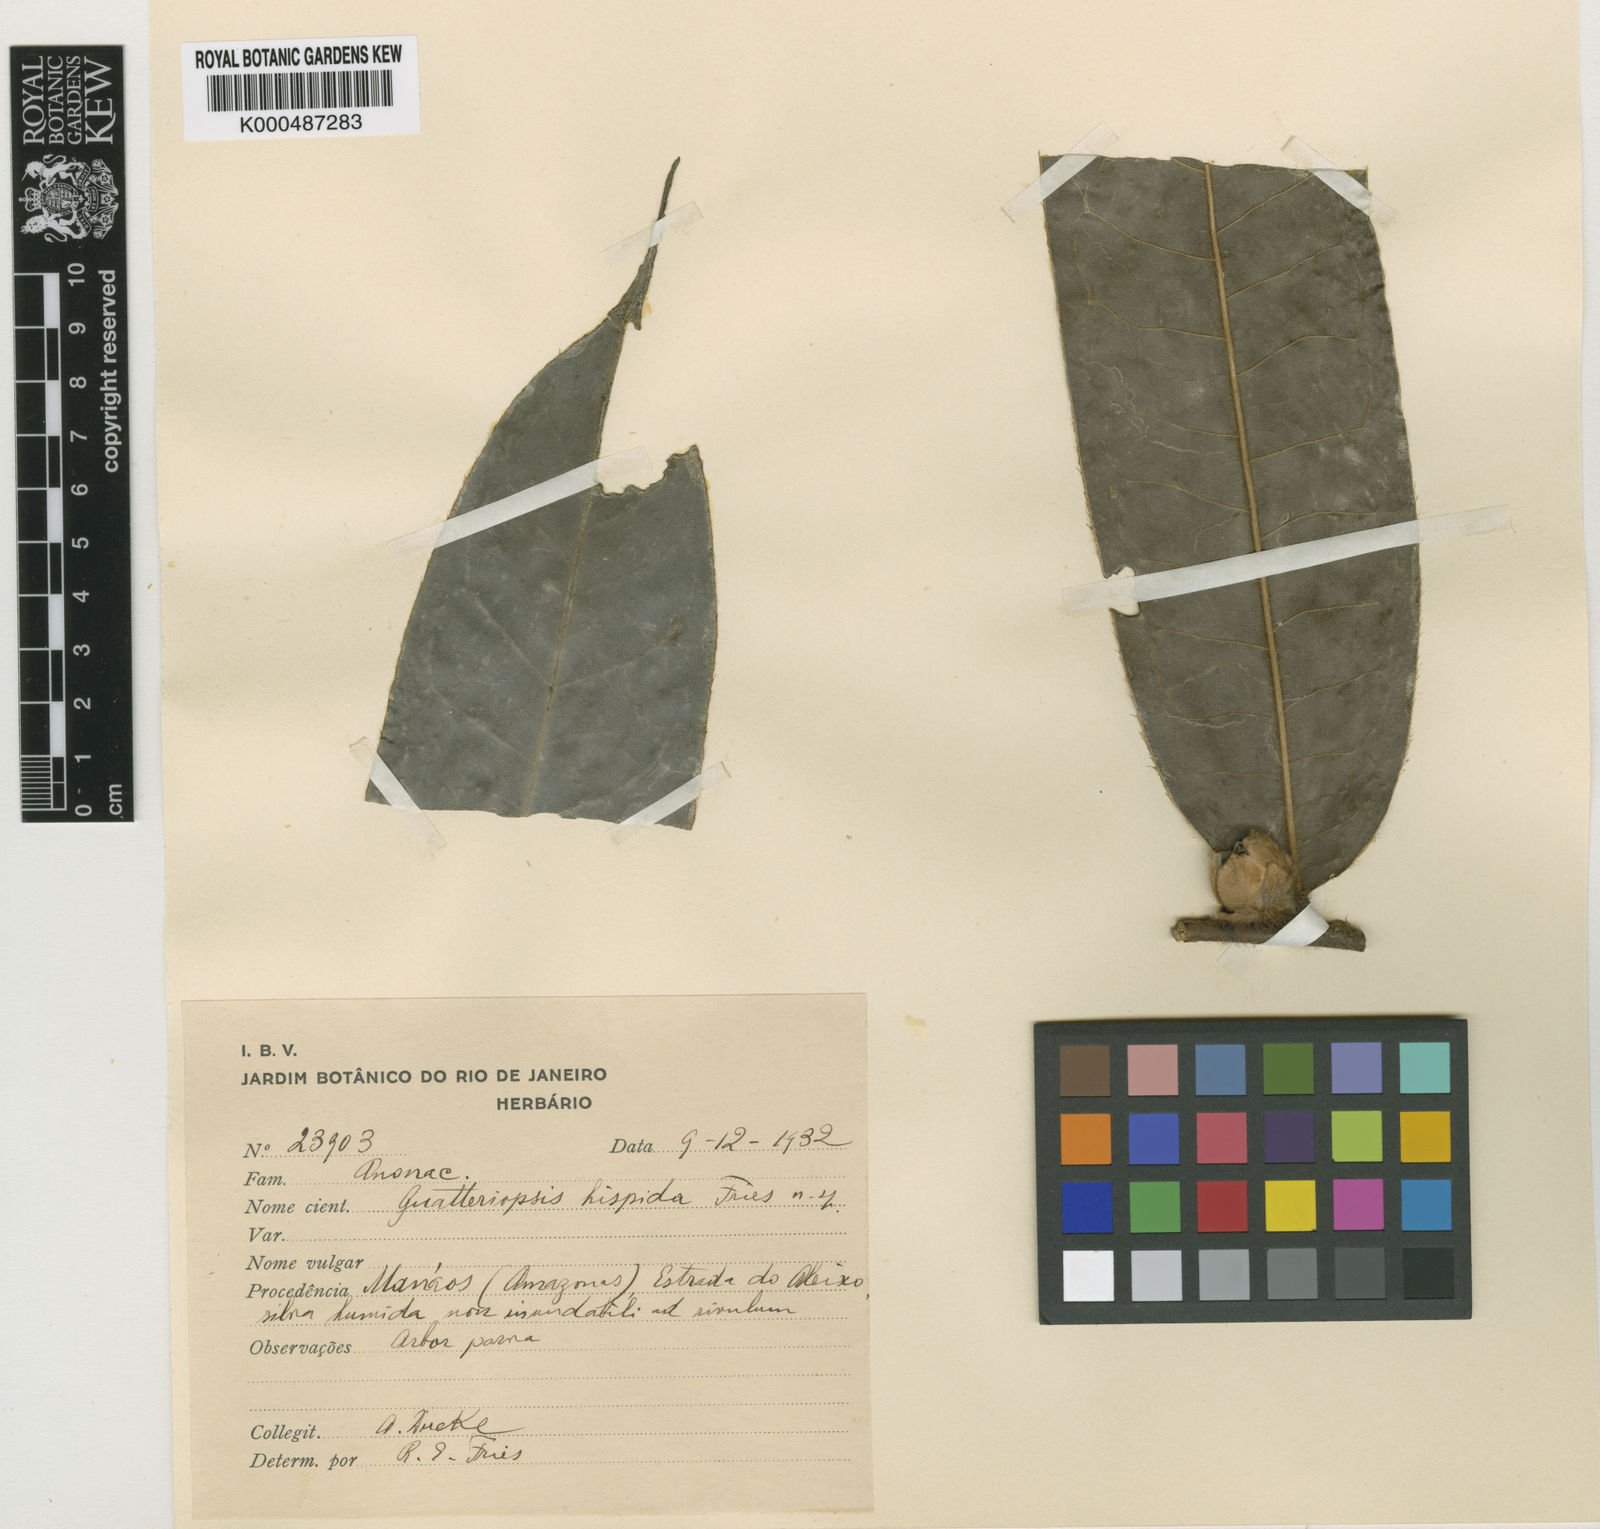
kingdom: Plantae
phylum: Tracheophyta
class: Magnoliopsida
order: Magnoliales
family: Annonaceae
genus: Guatteria
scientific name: Guatteria hispida
